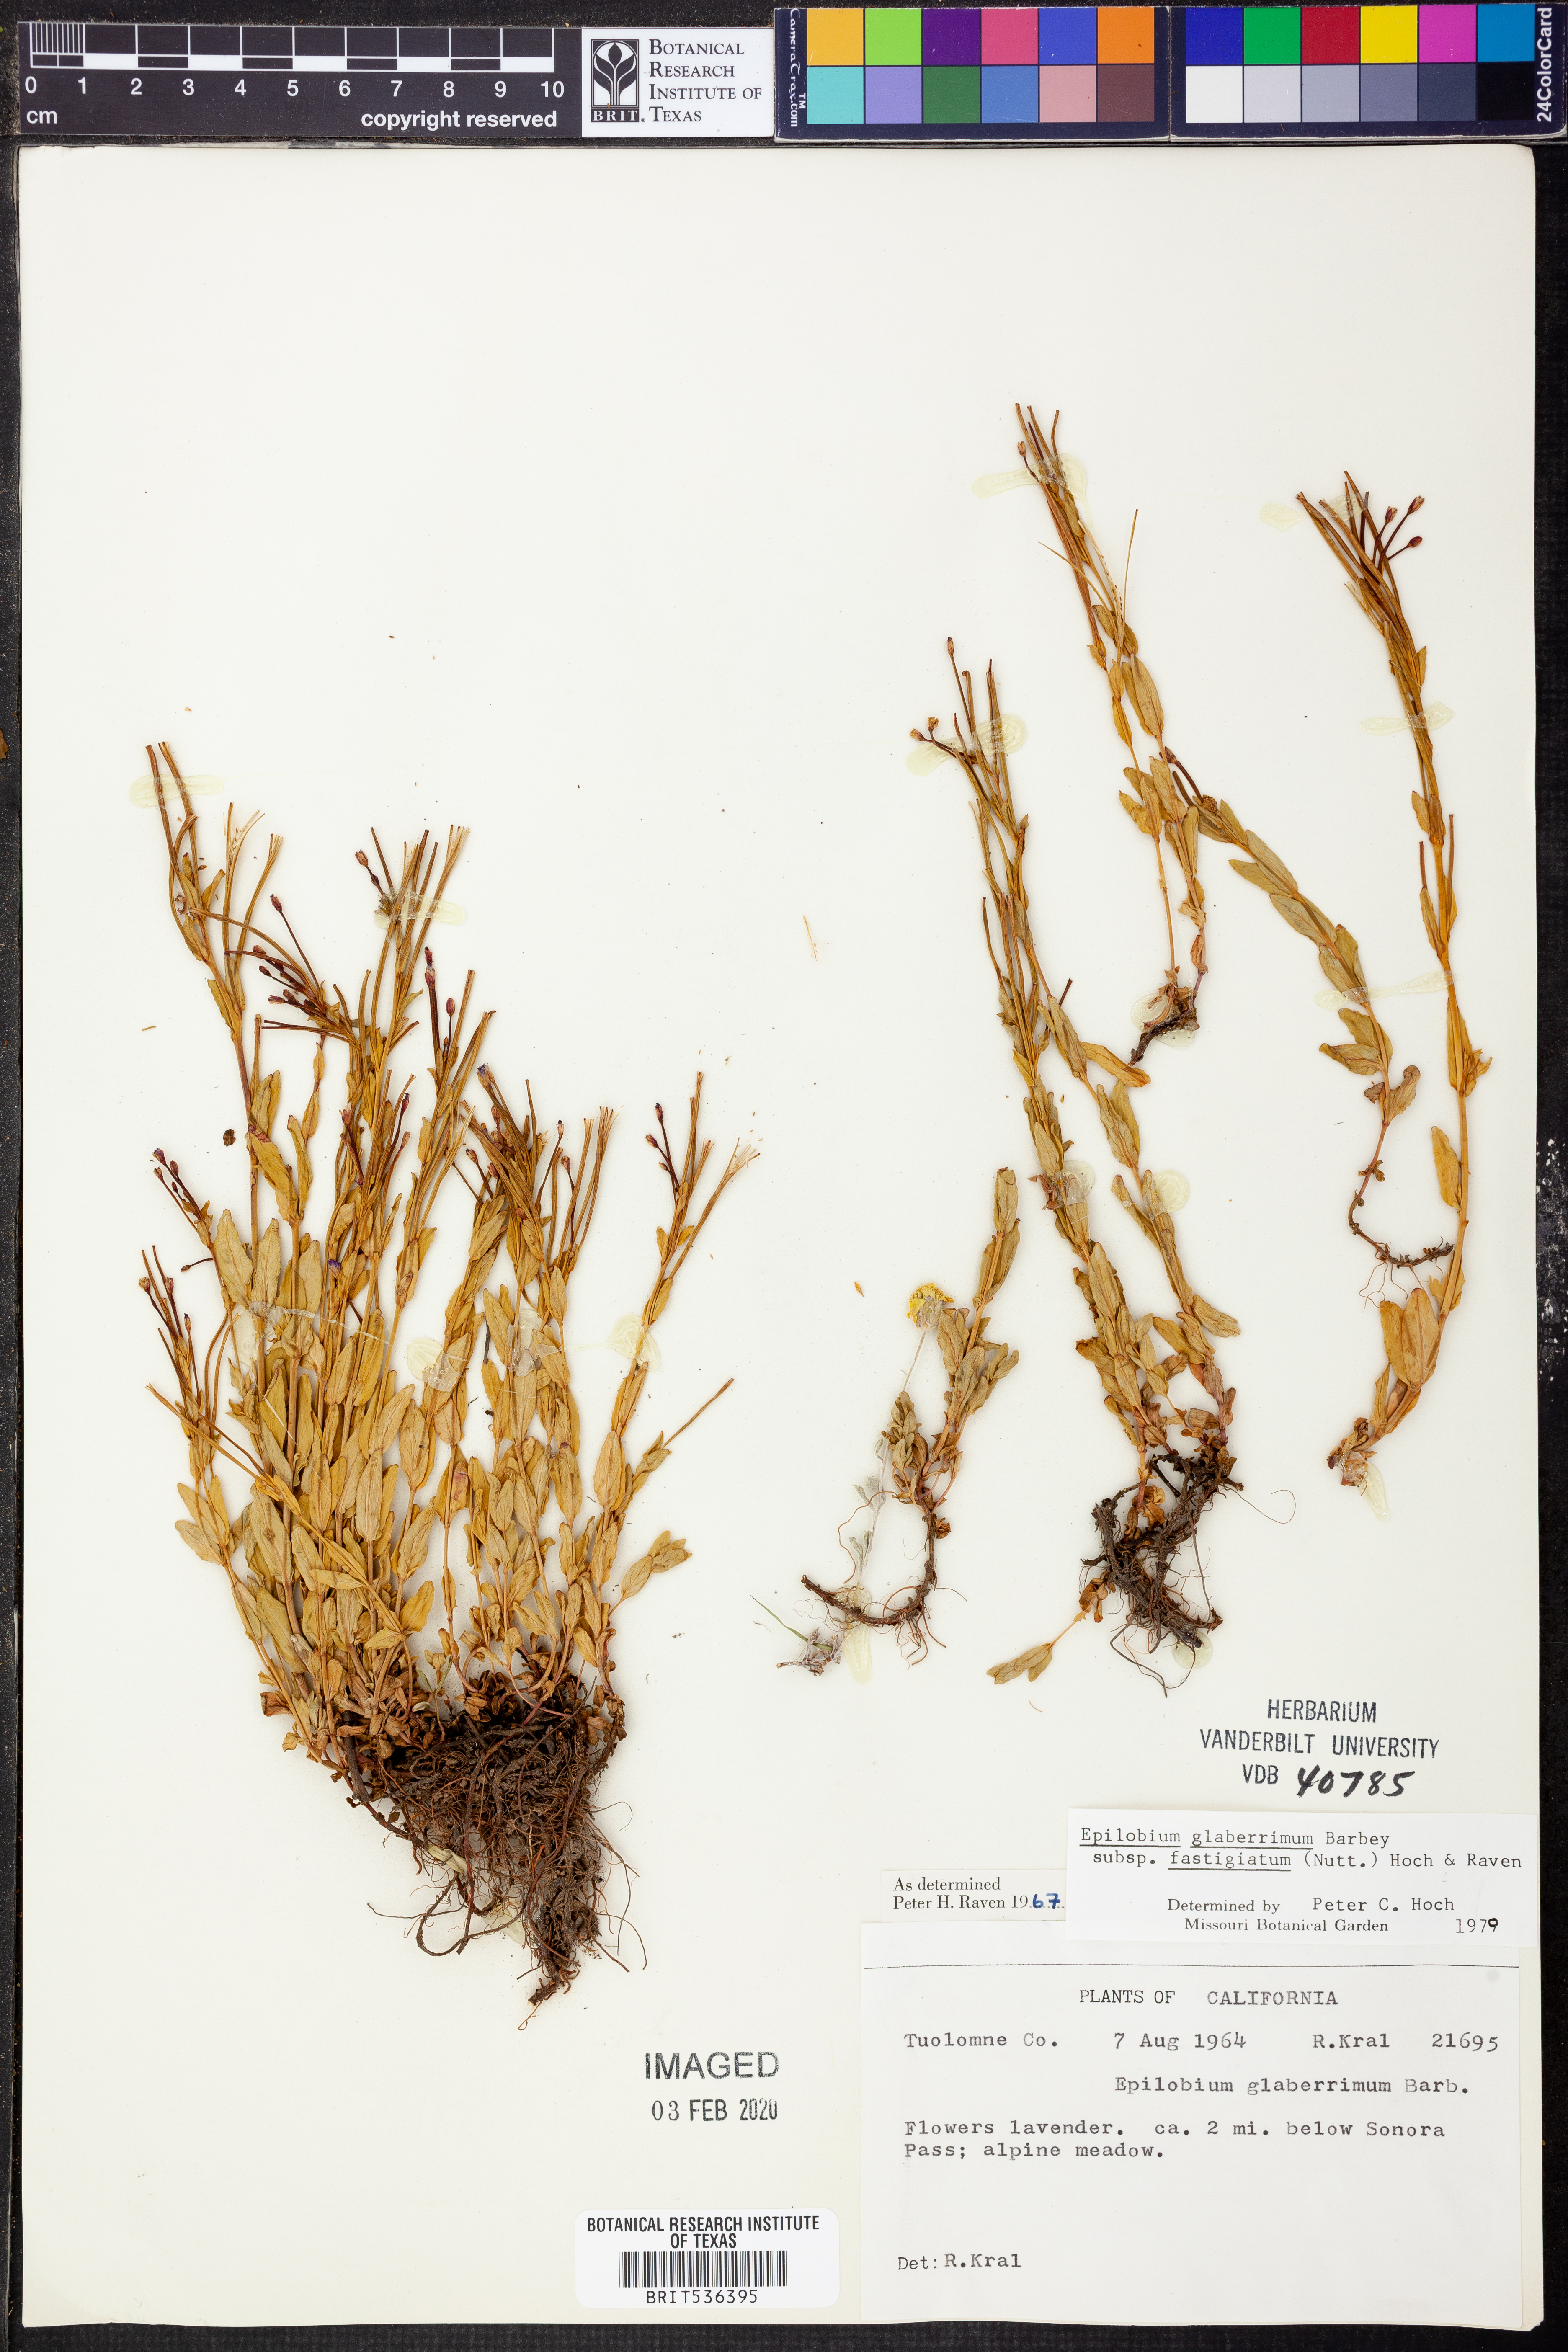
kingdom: Plantae
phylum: Tracheophyta
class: Magnoliopsida
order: Myrtales
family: Onagraceae
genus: Epilobium
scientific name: Epilobium glaberrimum
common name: Glaucous willowherb
